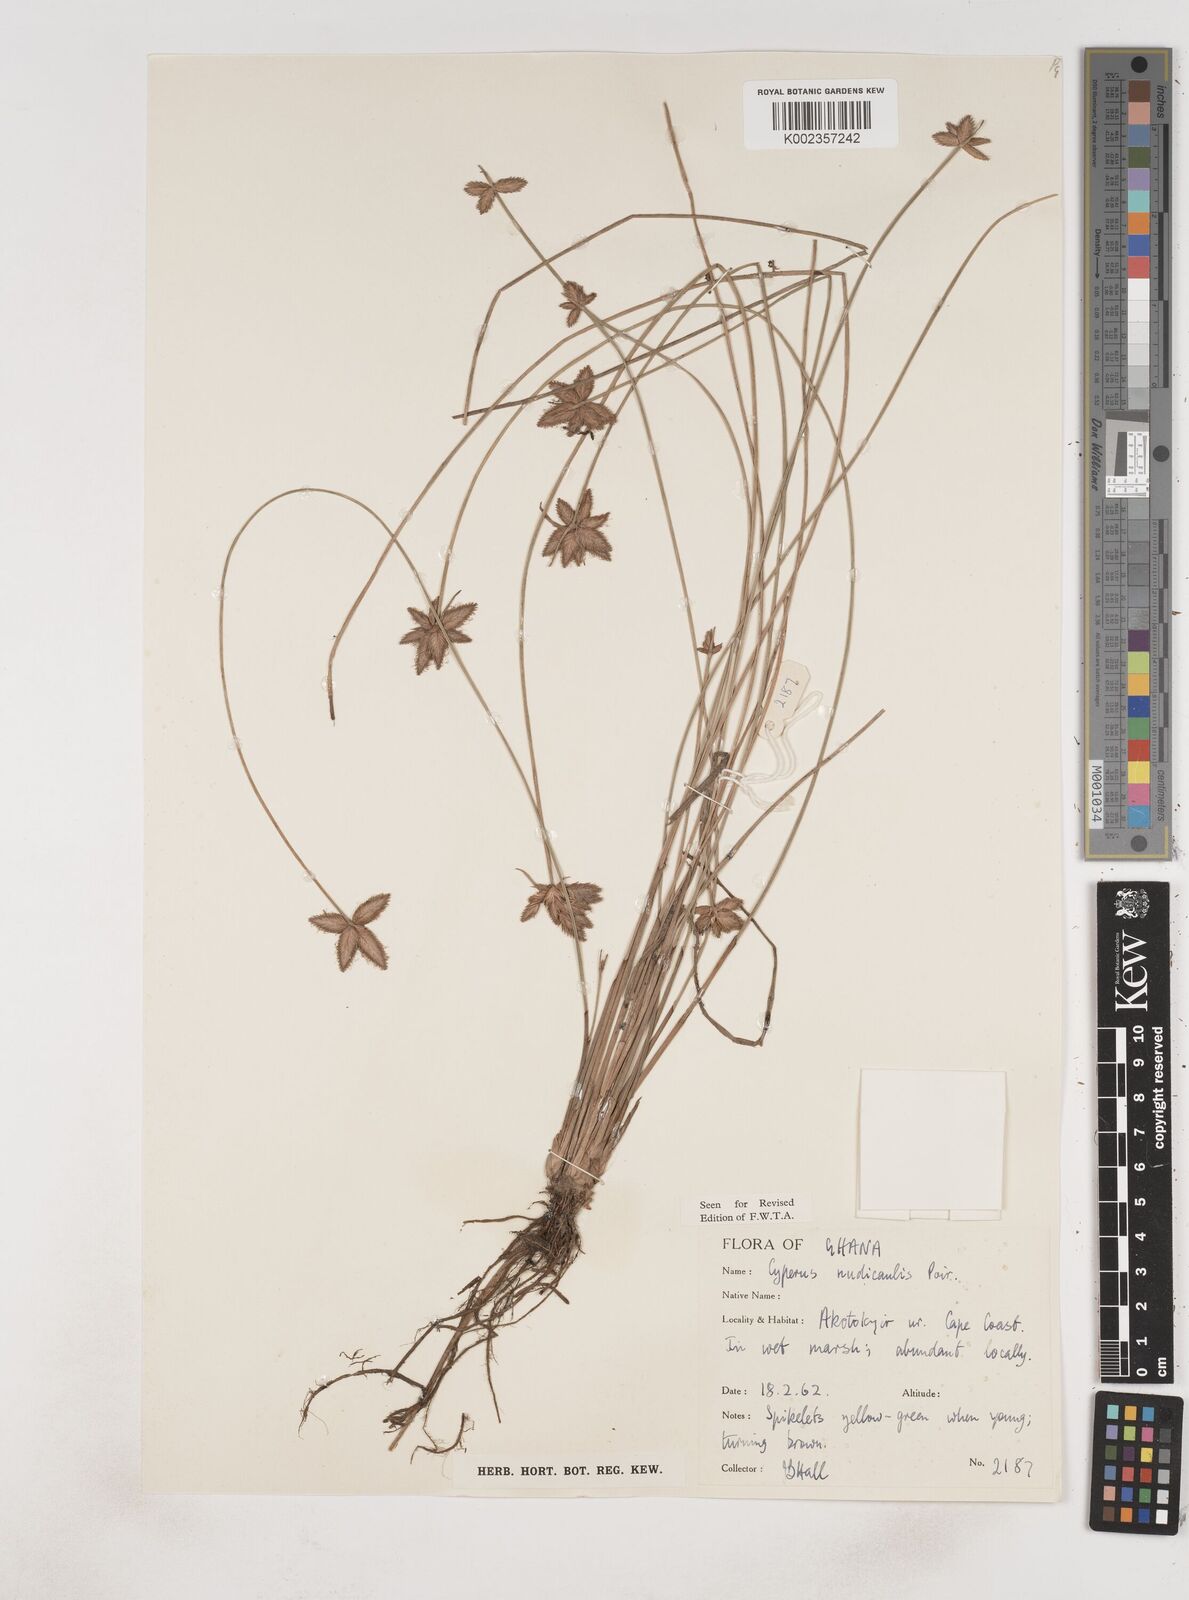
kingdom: Plantae
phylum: Tracheophyta
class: Liliopsida
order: Poales
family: Cyperaceae
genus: Cyperus
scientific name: Cyperus pectinatus
